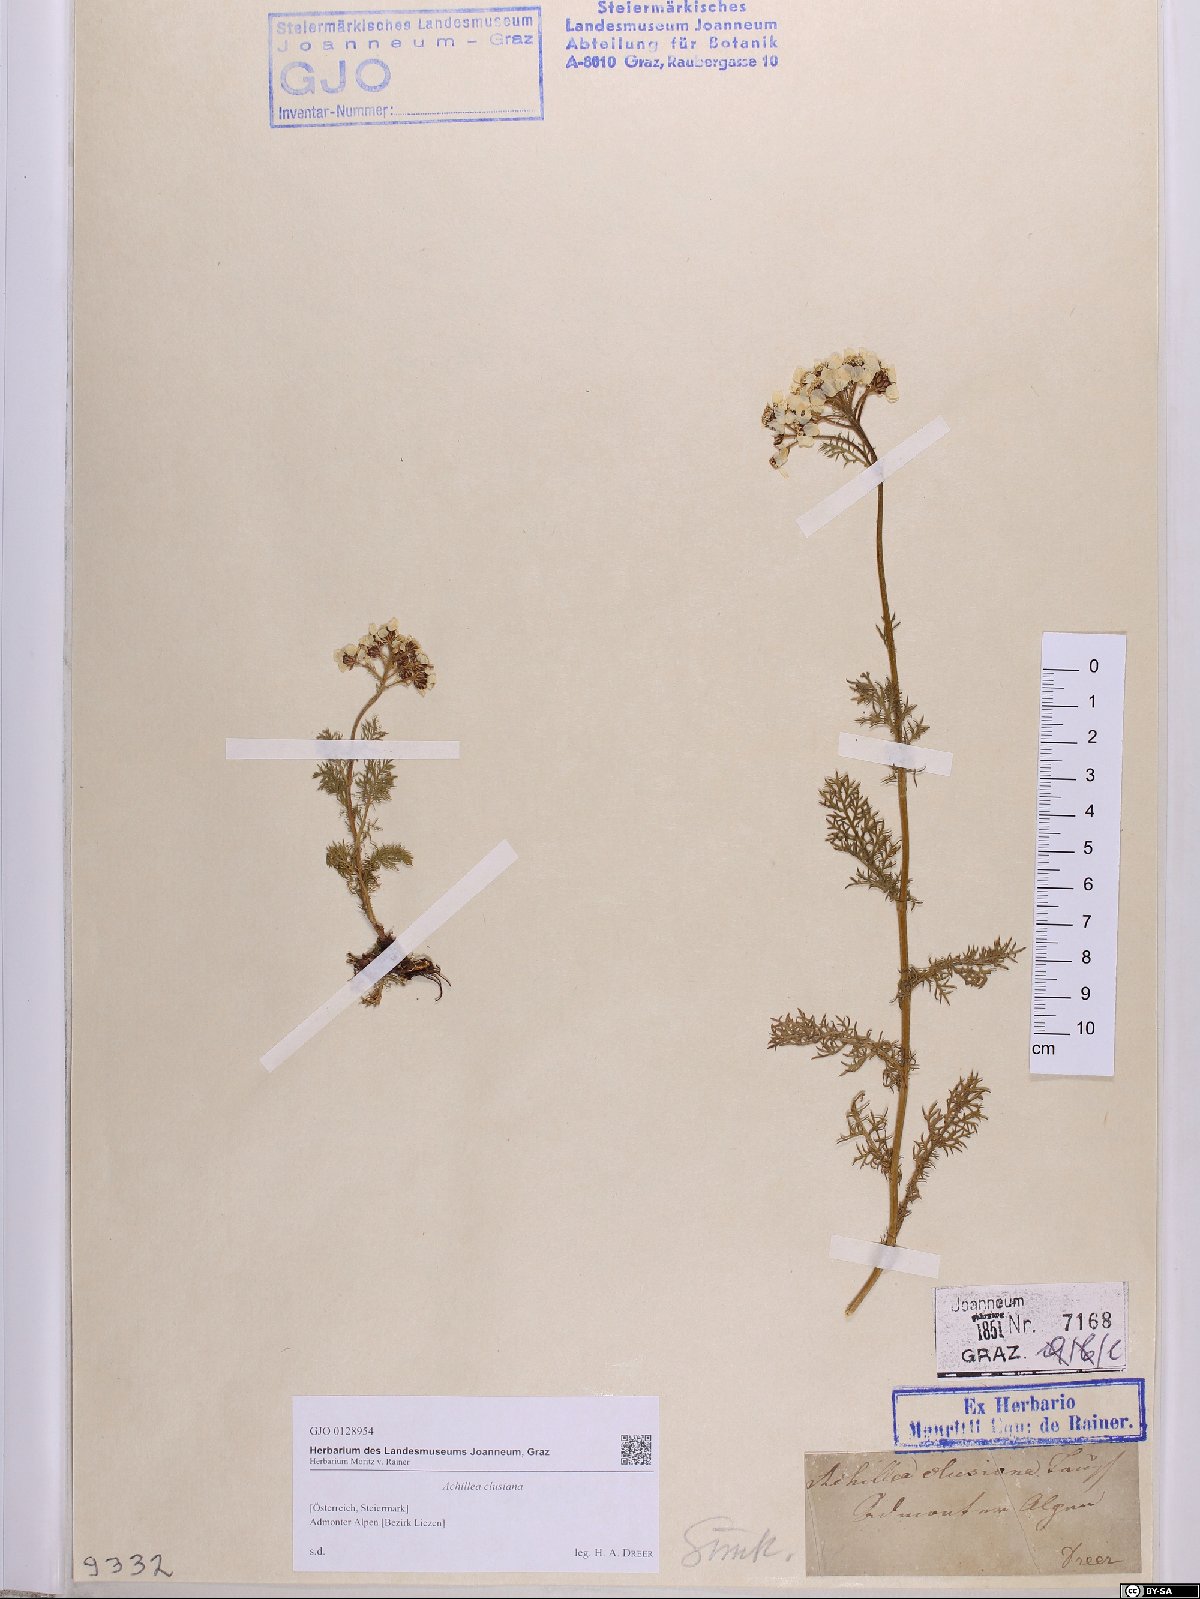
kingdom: Plantae
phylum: Tracheophyta
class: Magnoliopsida
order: Asterales
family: Asteraceae
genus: Achillea
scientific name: Achillea clusiana
